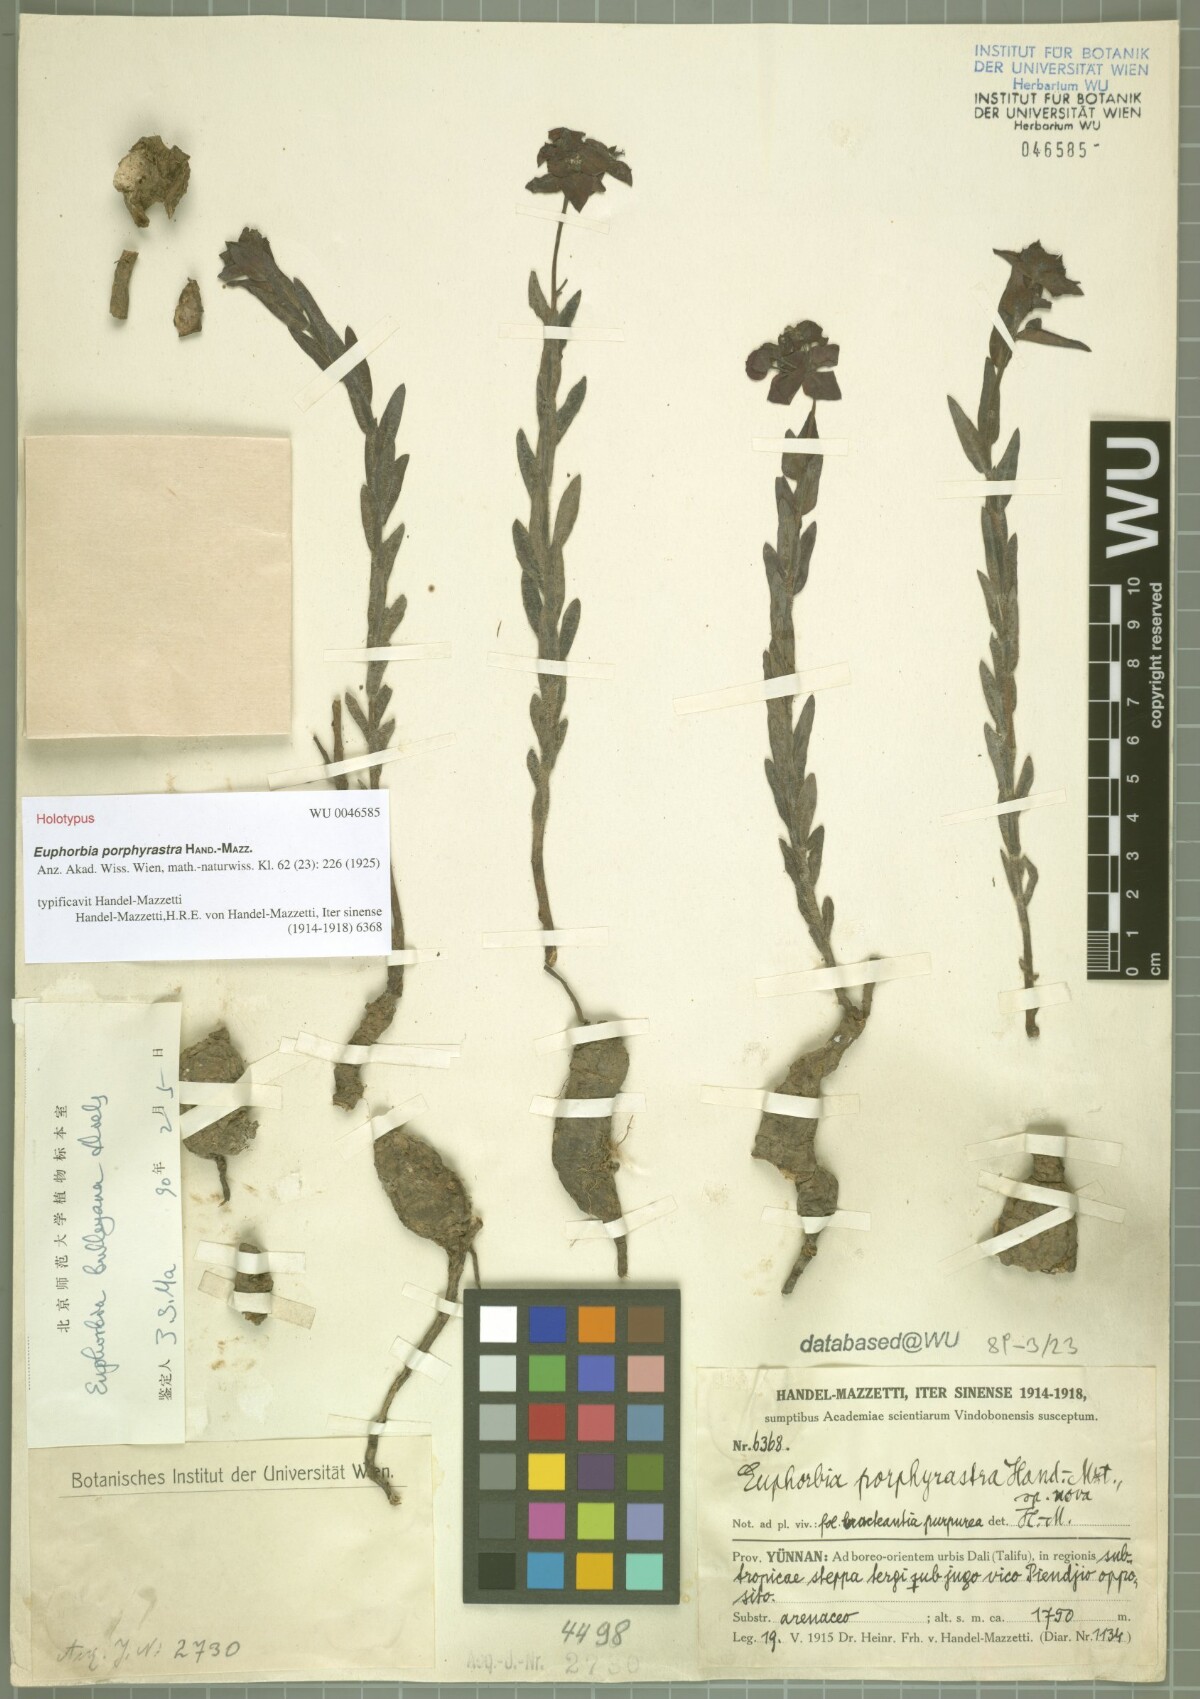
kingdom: Plantae
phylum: Tracheophyta
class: Magnoliopsida
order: Malpighiales
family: Euphorbiaceae
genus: Euphorbia
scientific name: Euphorbia griffithii
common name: Griffith's spurge
